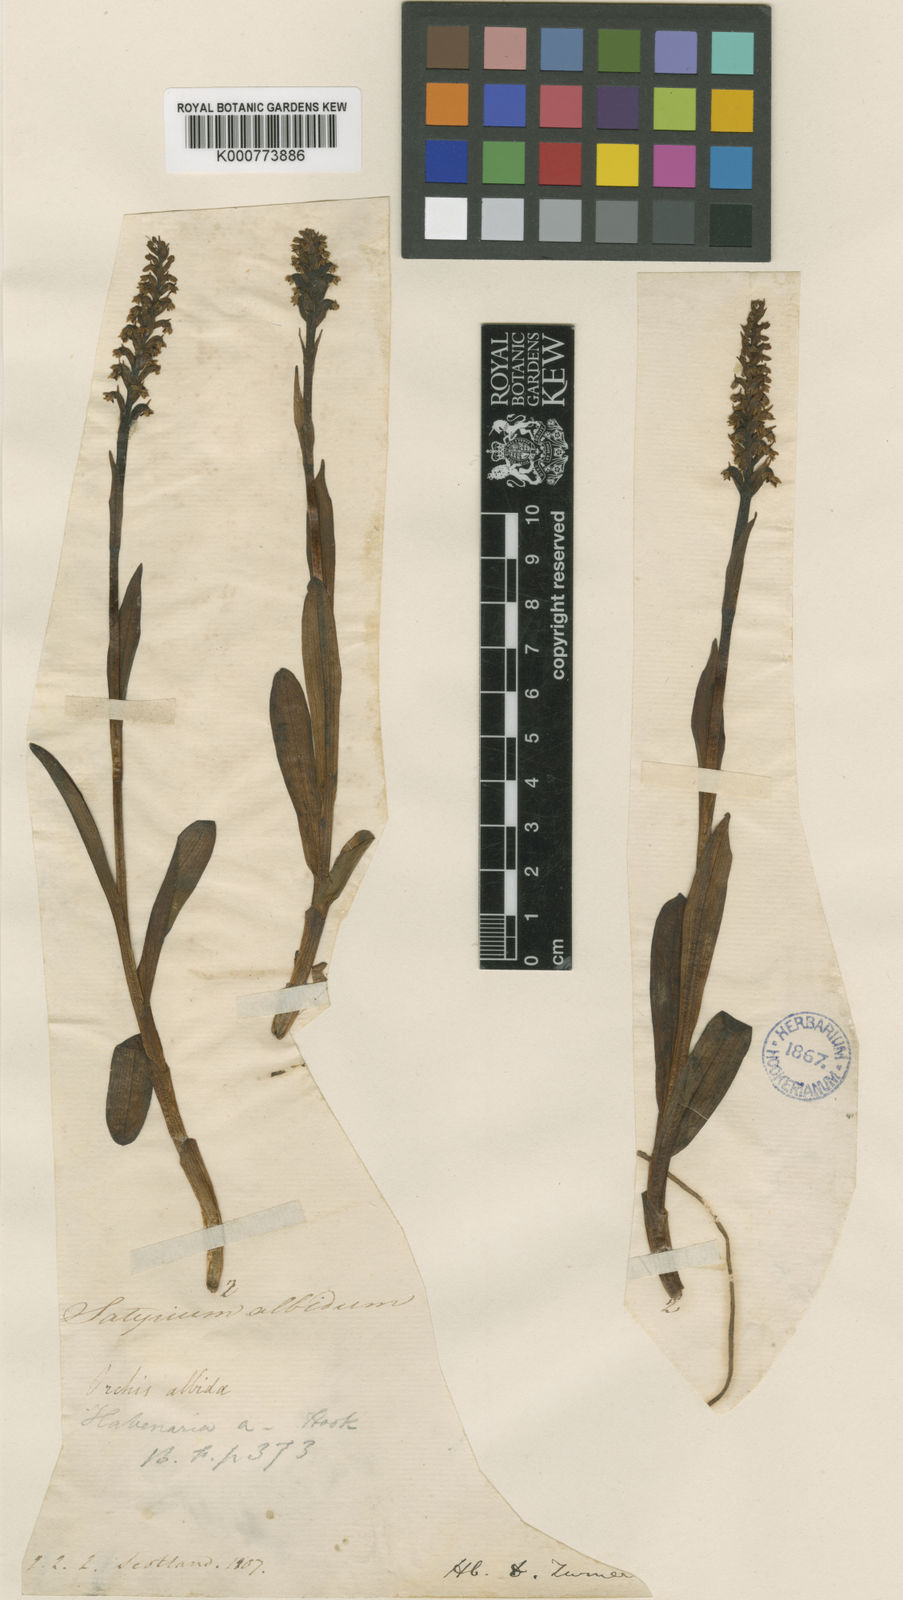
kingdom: Plantae
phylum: Tracheophyta
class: Liliopsida
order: Asparagales
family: Orchidaceae
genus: Pseudorchis
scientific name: Pseudorchis
